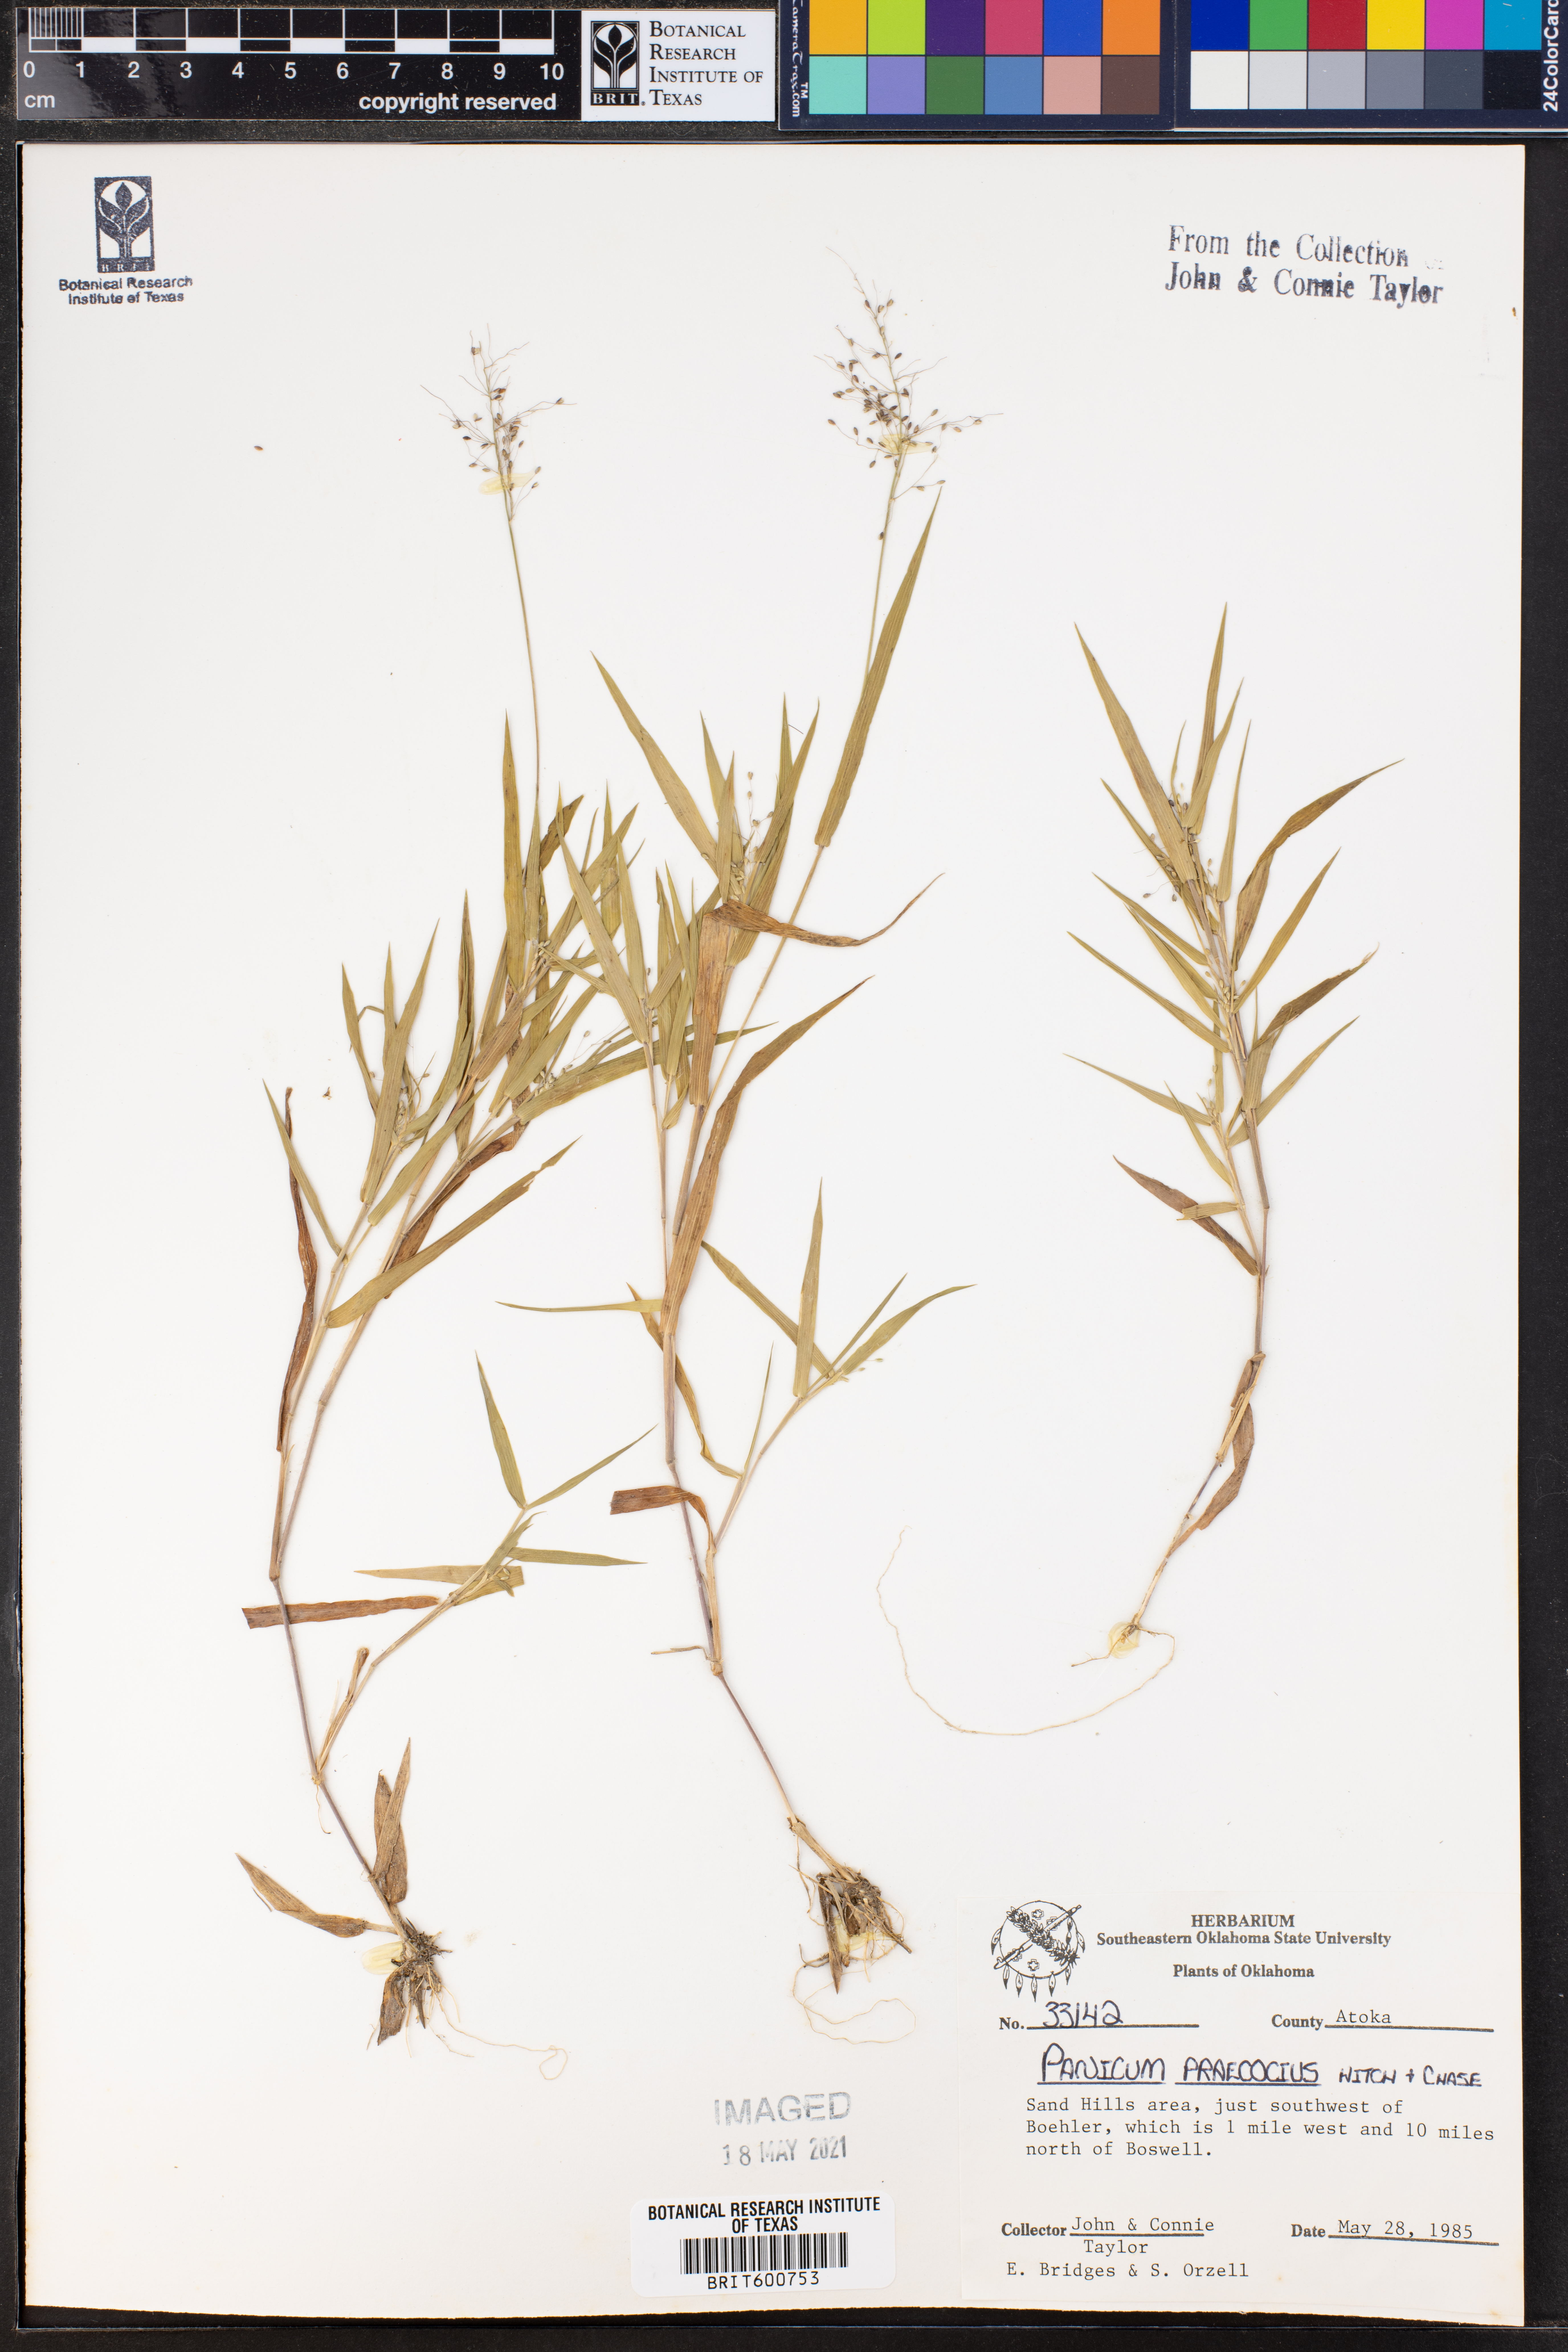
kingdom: Plantae
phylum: Tracheophyta
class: Liliopsida
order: Poales
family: Poaceae
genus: Dichanthelium
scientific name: Dichanthelium praecocius
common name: Early-branching panicgrass
